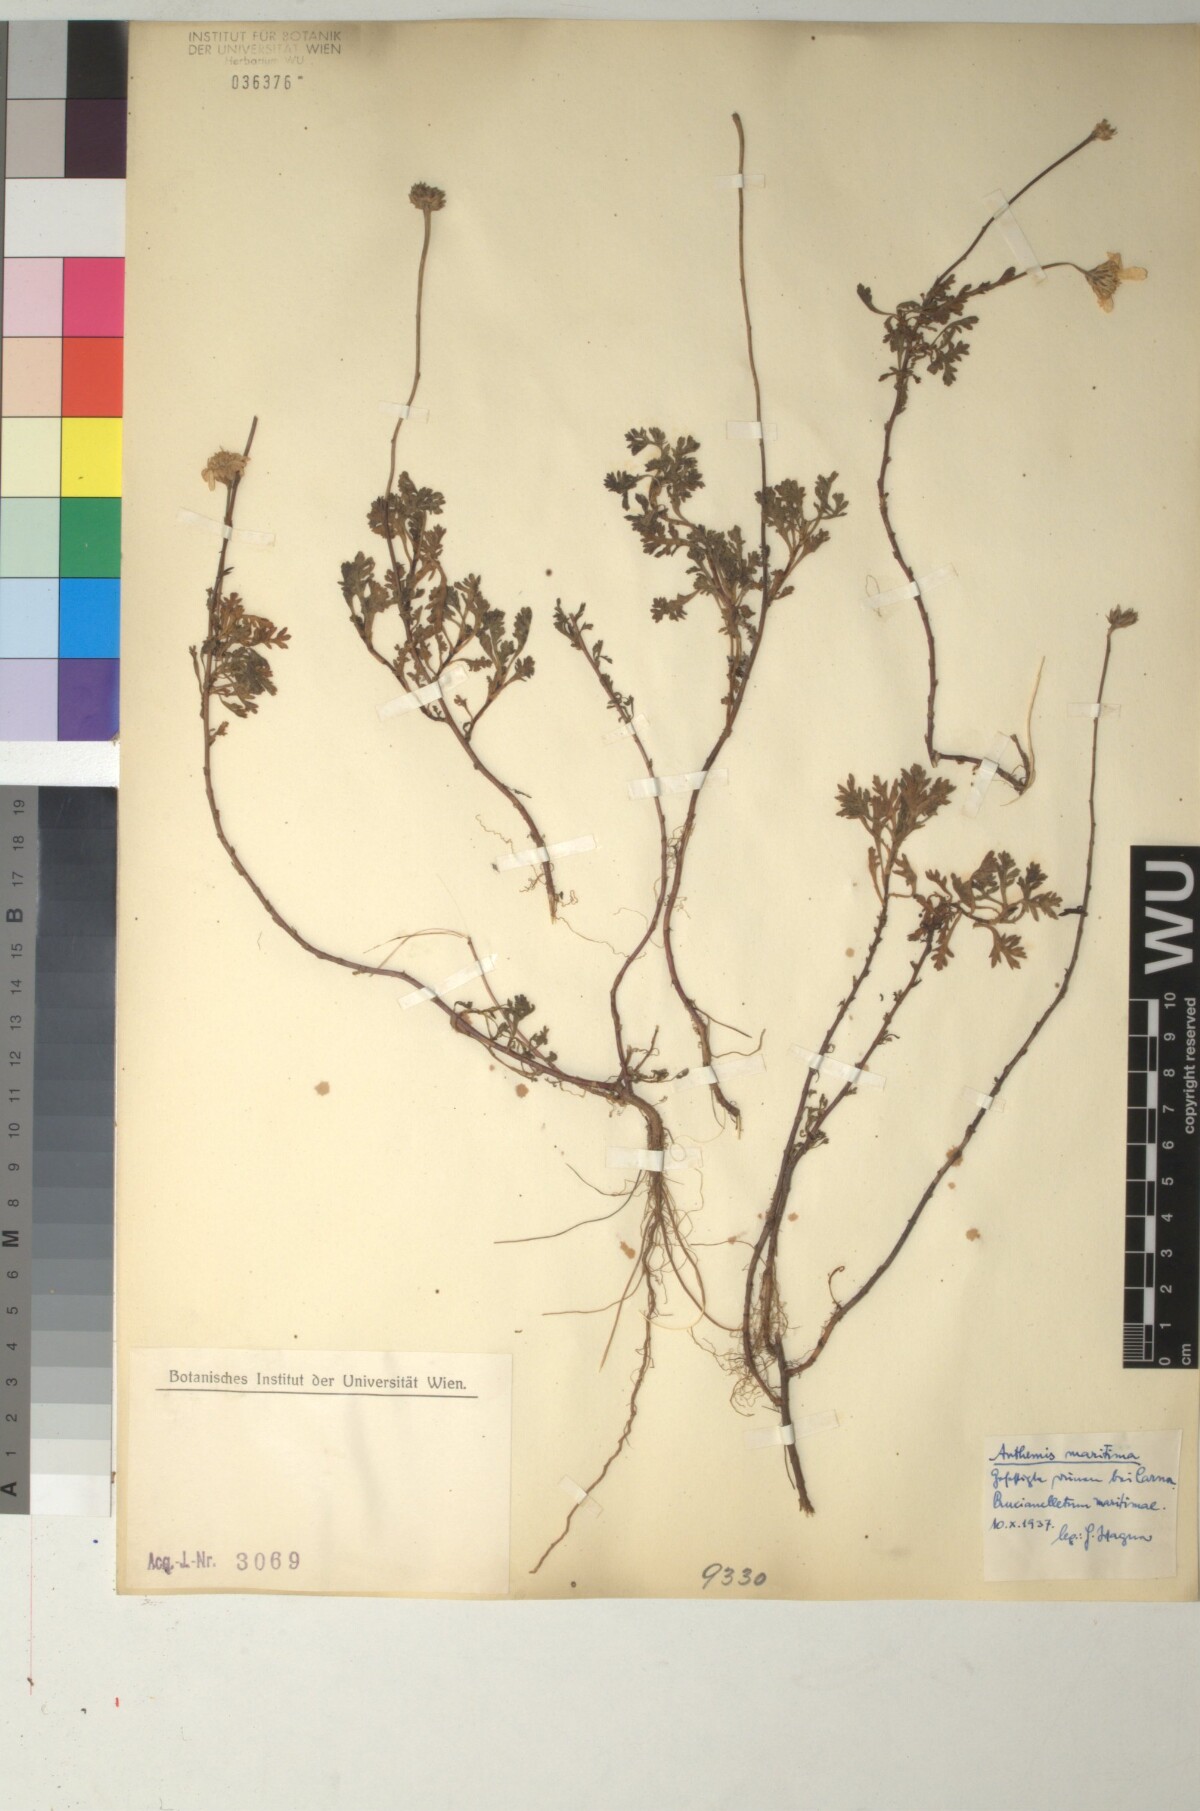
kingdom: Plantae
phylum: Tracheophyta
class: Magnoliopsida
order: Asterales
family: Asteraceae
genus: Anthemis
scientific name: Anthemis maritima
